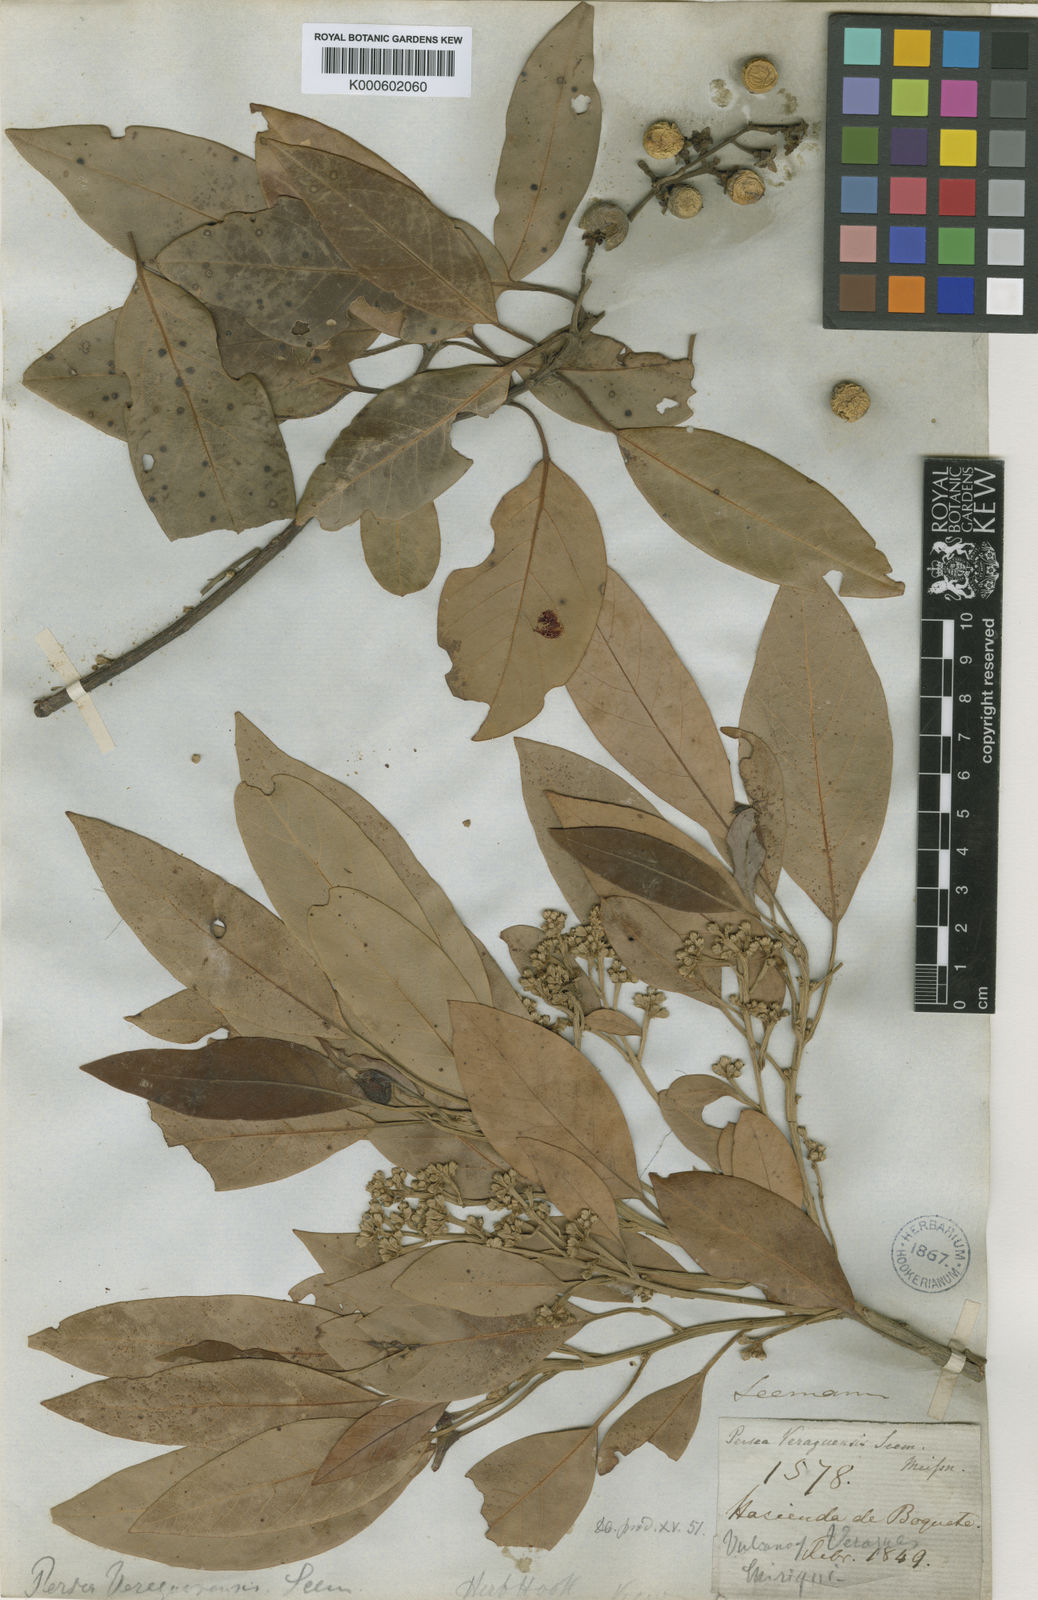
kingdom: Plantae
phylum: Tracheophyta
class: Magnoliopsida
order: Laurales
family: Lauraceae
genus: Persea
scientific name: Persea veraguasensis
